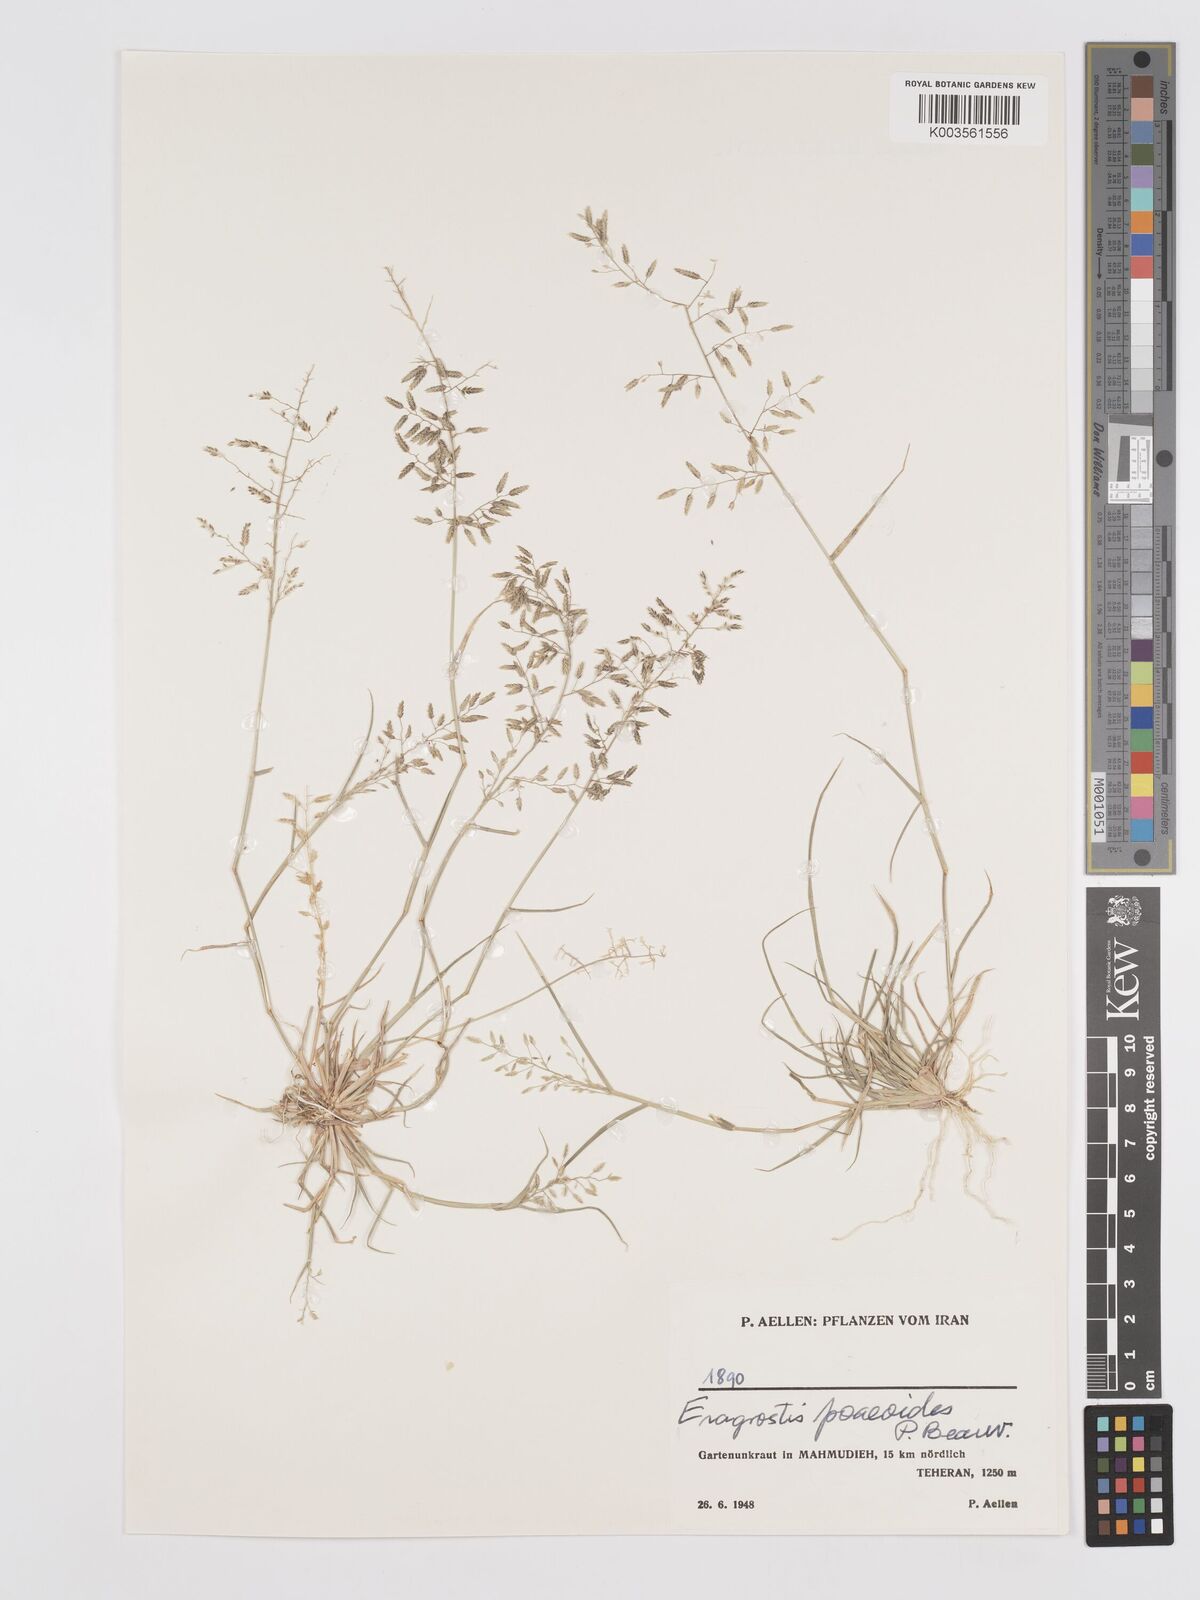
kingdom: Plantae
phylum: Tracheophyta
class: Liliopsida
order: Poales
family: Poaceae
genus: Eragrostis
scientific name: Eragrostis minor
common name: Small love-grass
